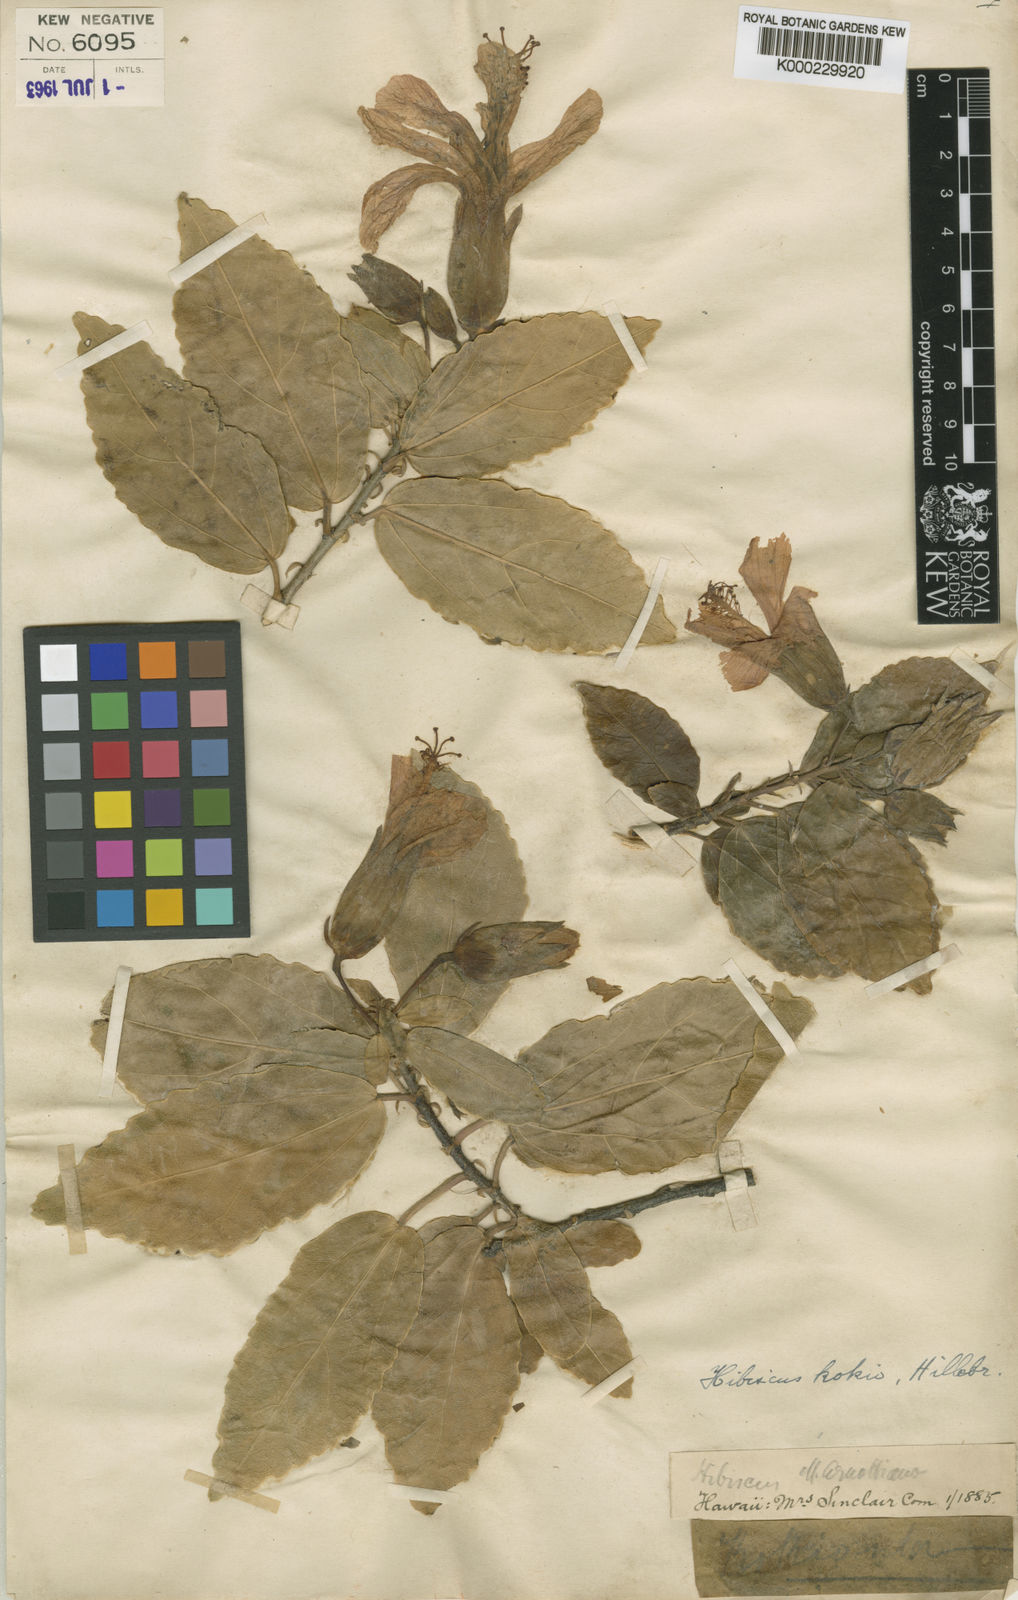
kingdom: Plantae
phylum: Tracheophyta
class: Magnoliopsida
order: Malvales
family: Malvaceae
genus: Hibiscus
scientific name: Hibiscus kokio
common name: Saint john's rosemallow
